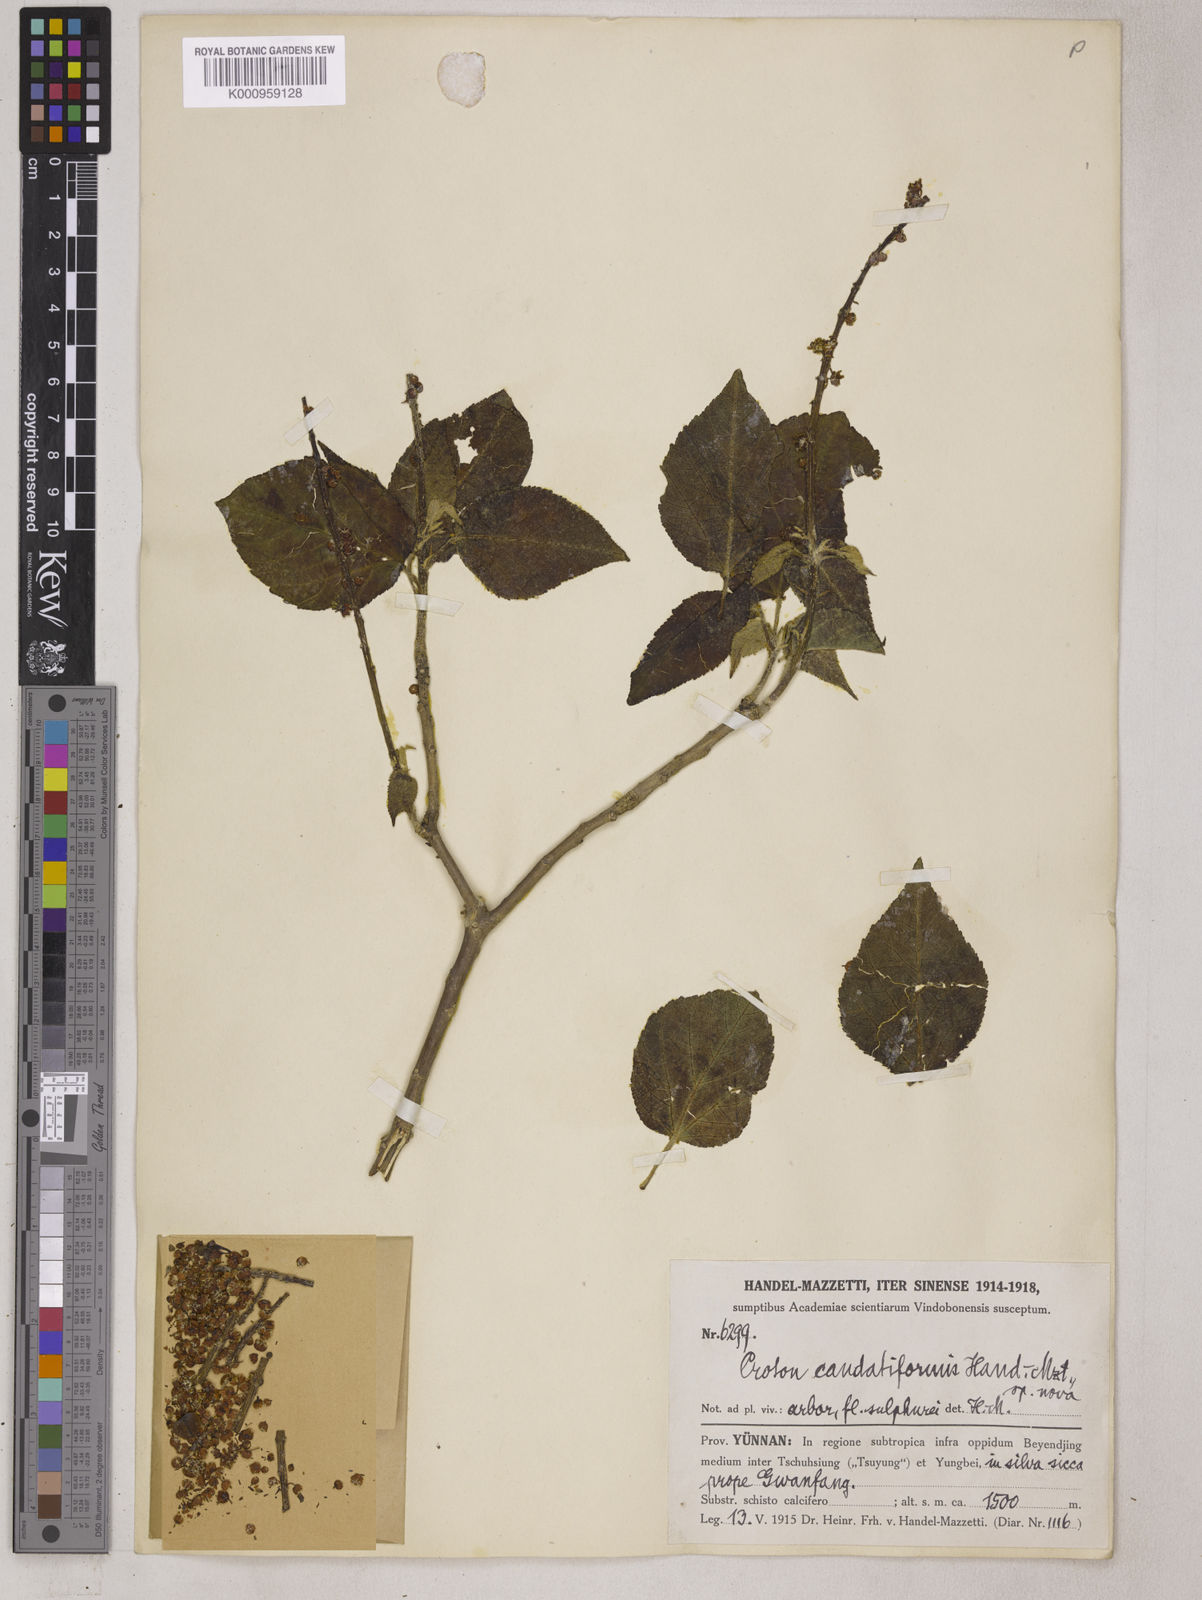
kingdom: Plantae
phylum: Tracheophyta
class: Magnoliopsida
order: Malpighiales
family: Euphorbiaceae
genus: Croton
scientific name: Croton euryphyllus
